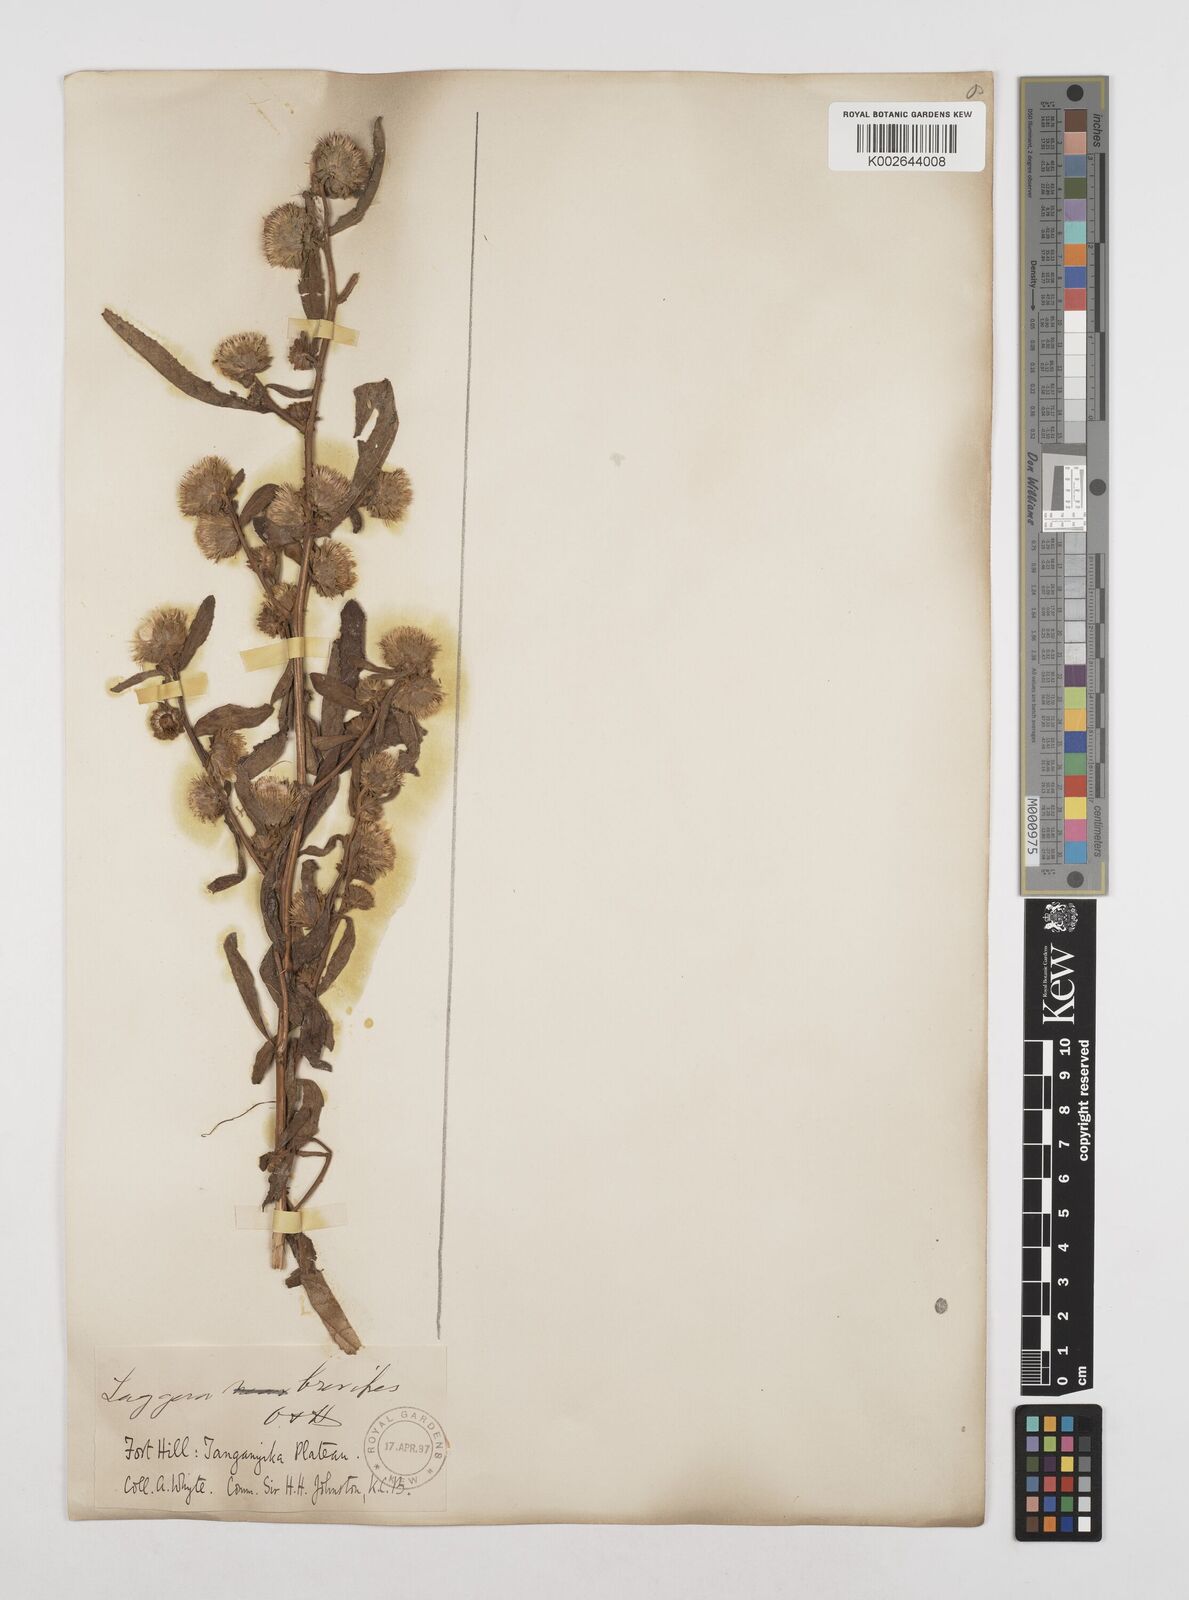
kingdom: Plantae
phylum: Tracheophyta
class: Magnoliopsida
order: Asterales
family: Asteraceae
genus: Laggera
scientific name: Laggera brevipes
